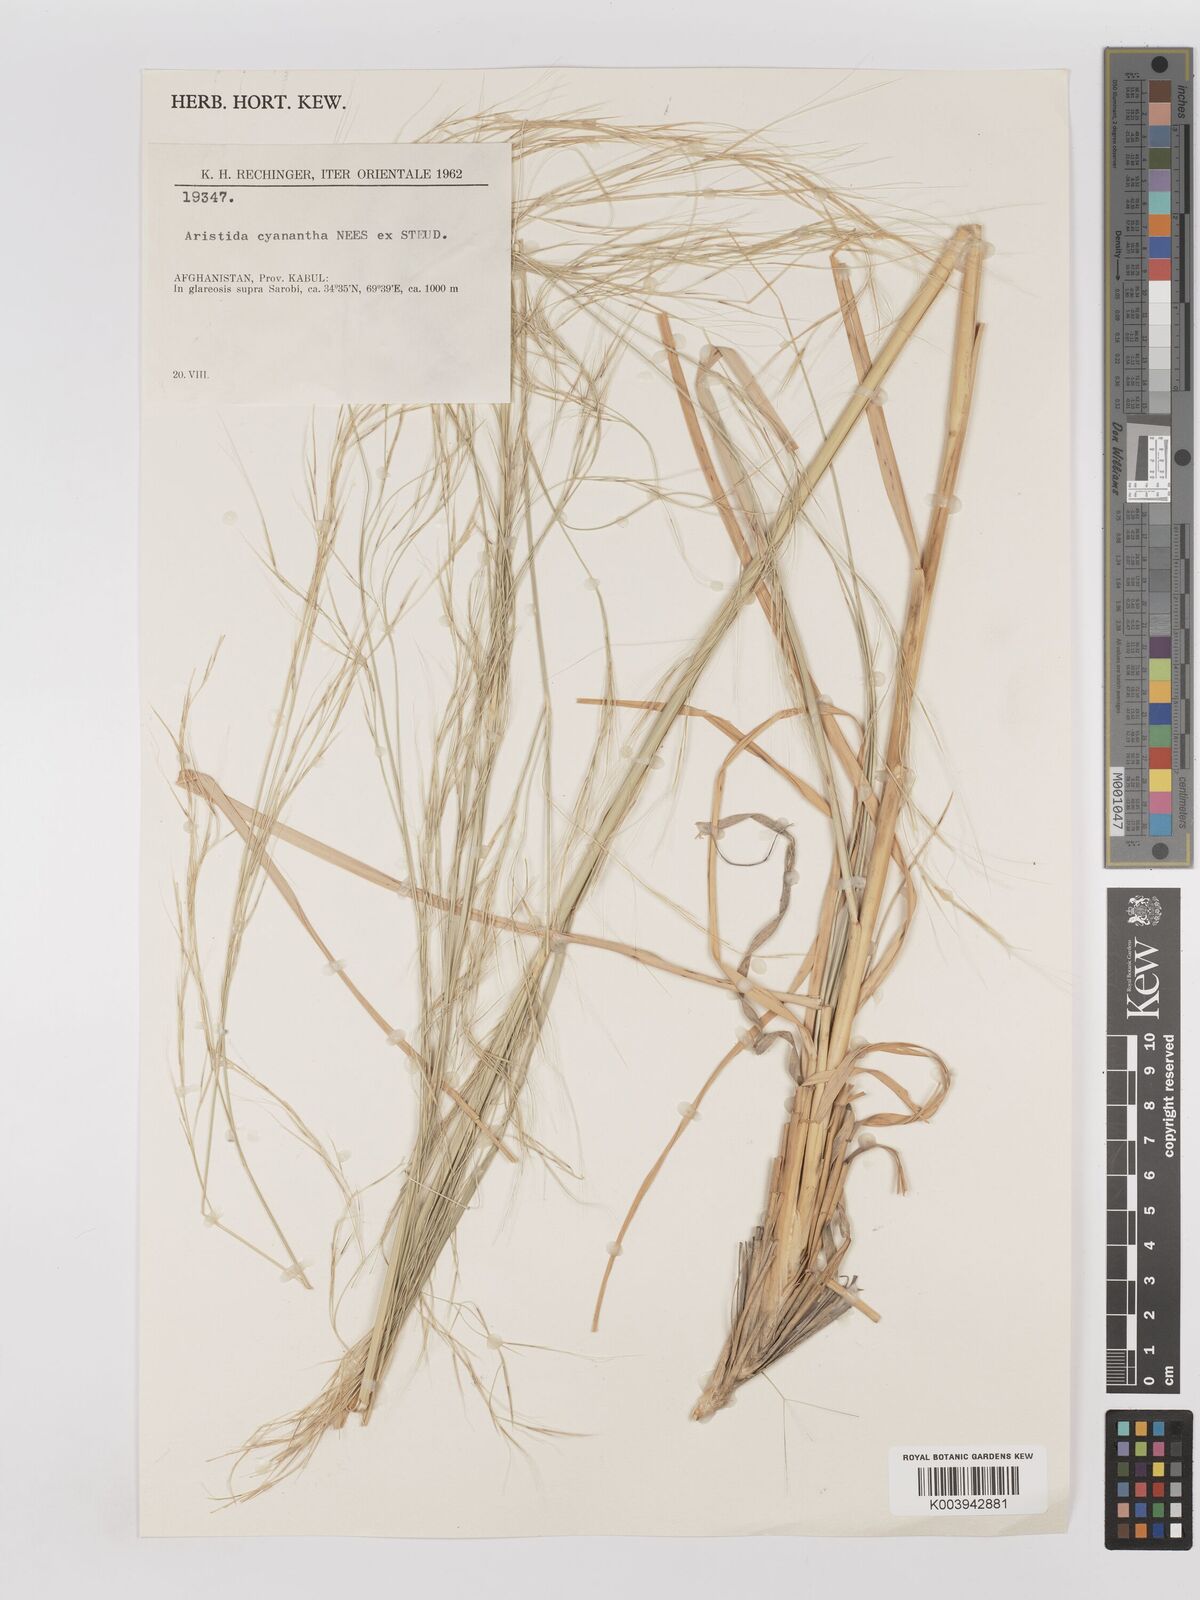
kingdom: Plantae
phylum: Tracheophyta
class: Liliopsida
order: Poales
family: Poaceae
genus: Aristida
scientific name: Aristida cyanantha
